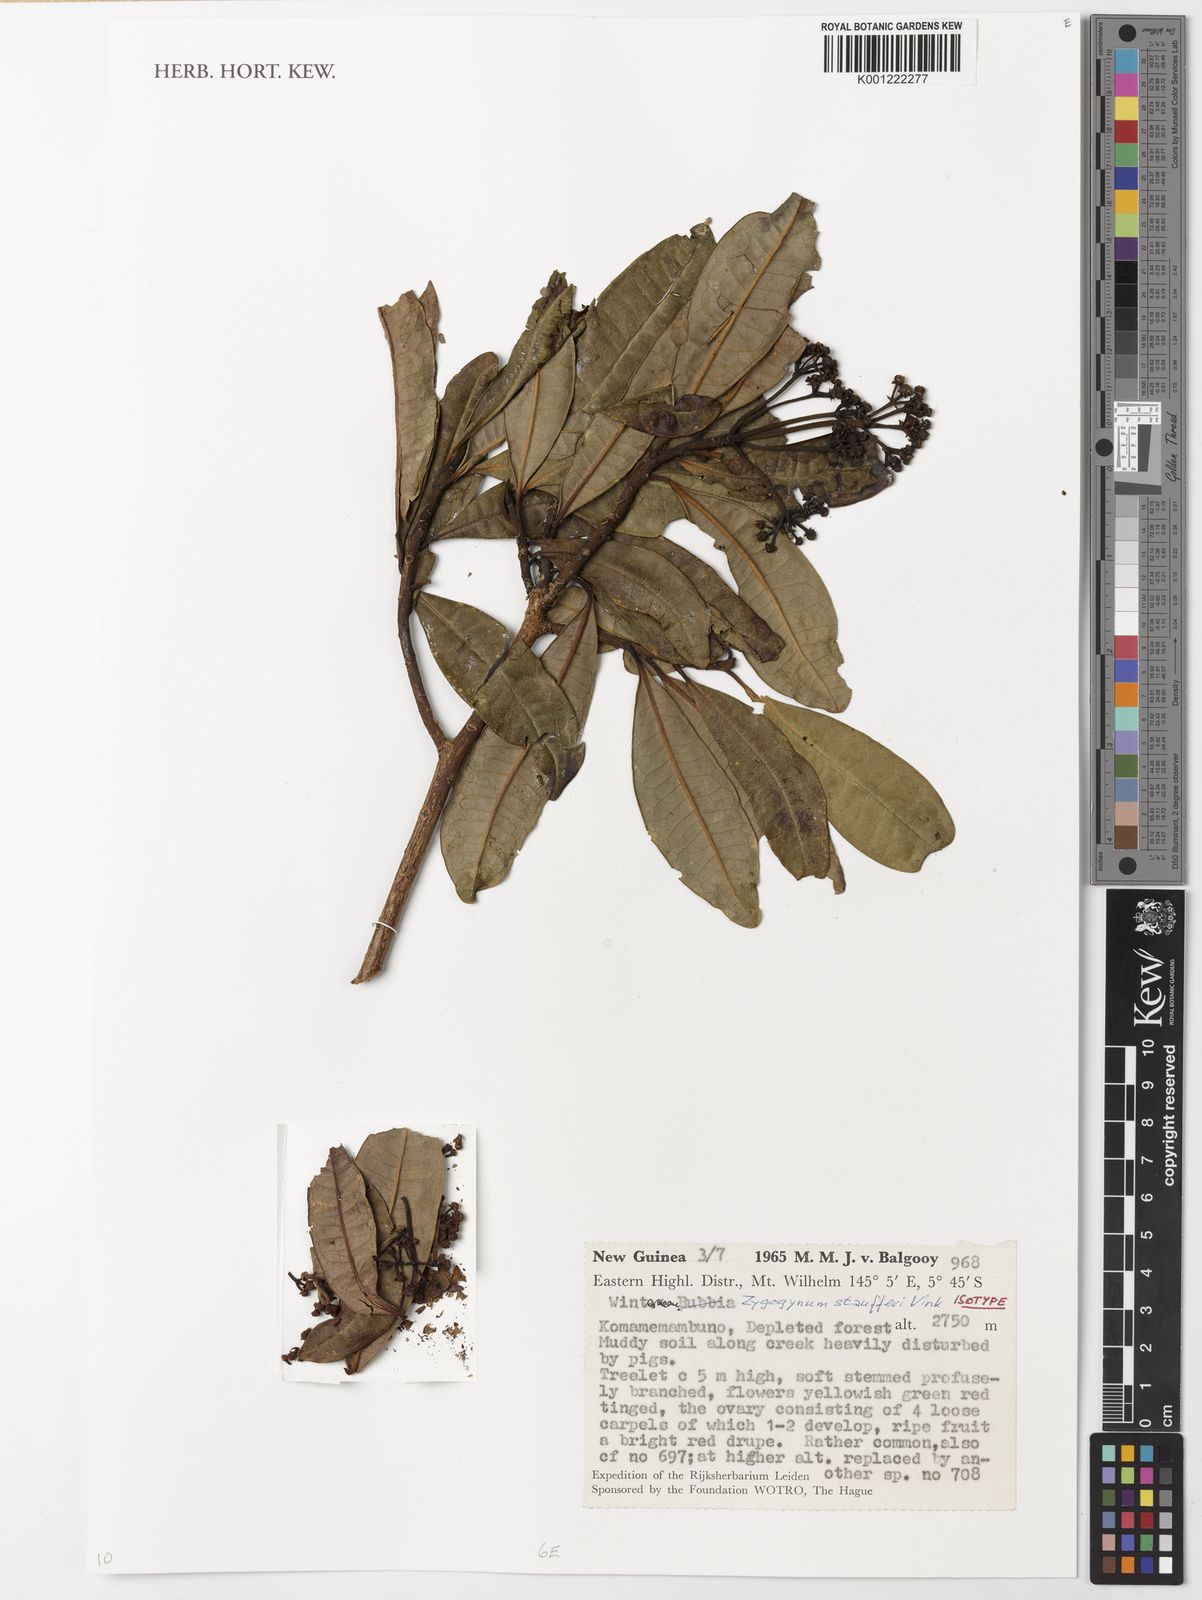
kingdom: Plantae
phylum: Tracheophyta
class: Magnoliopsida
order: Canellales
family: Winteraceae
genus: Zygogynum
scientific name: Zygogynum
